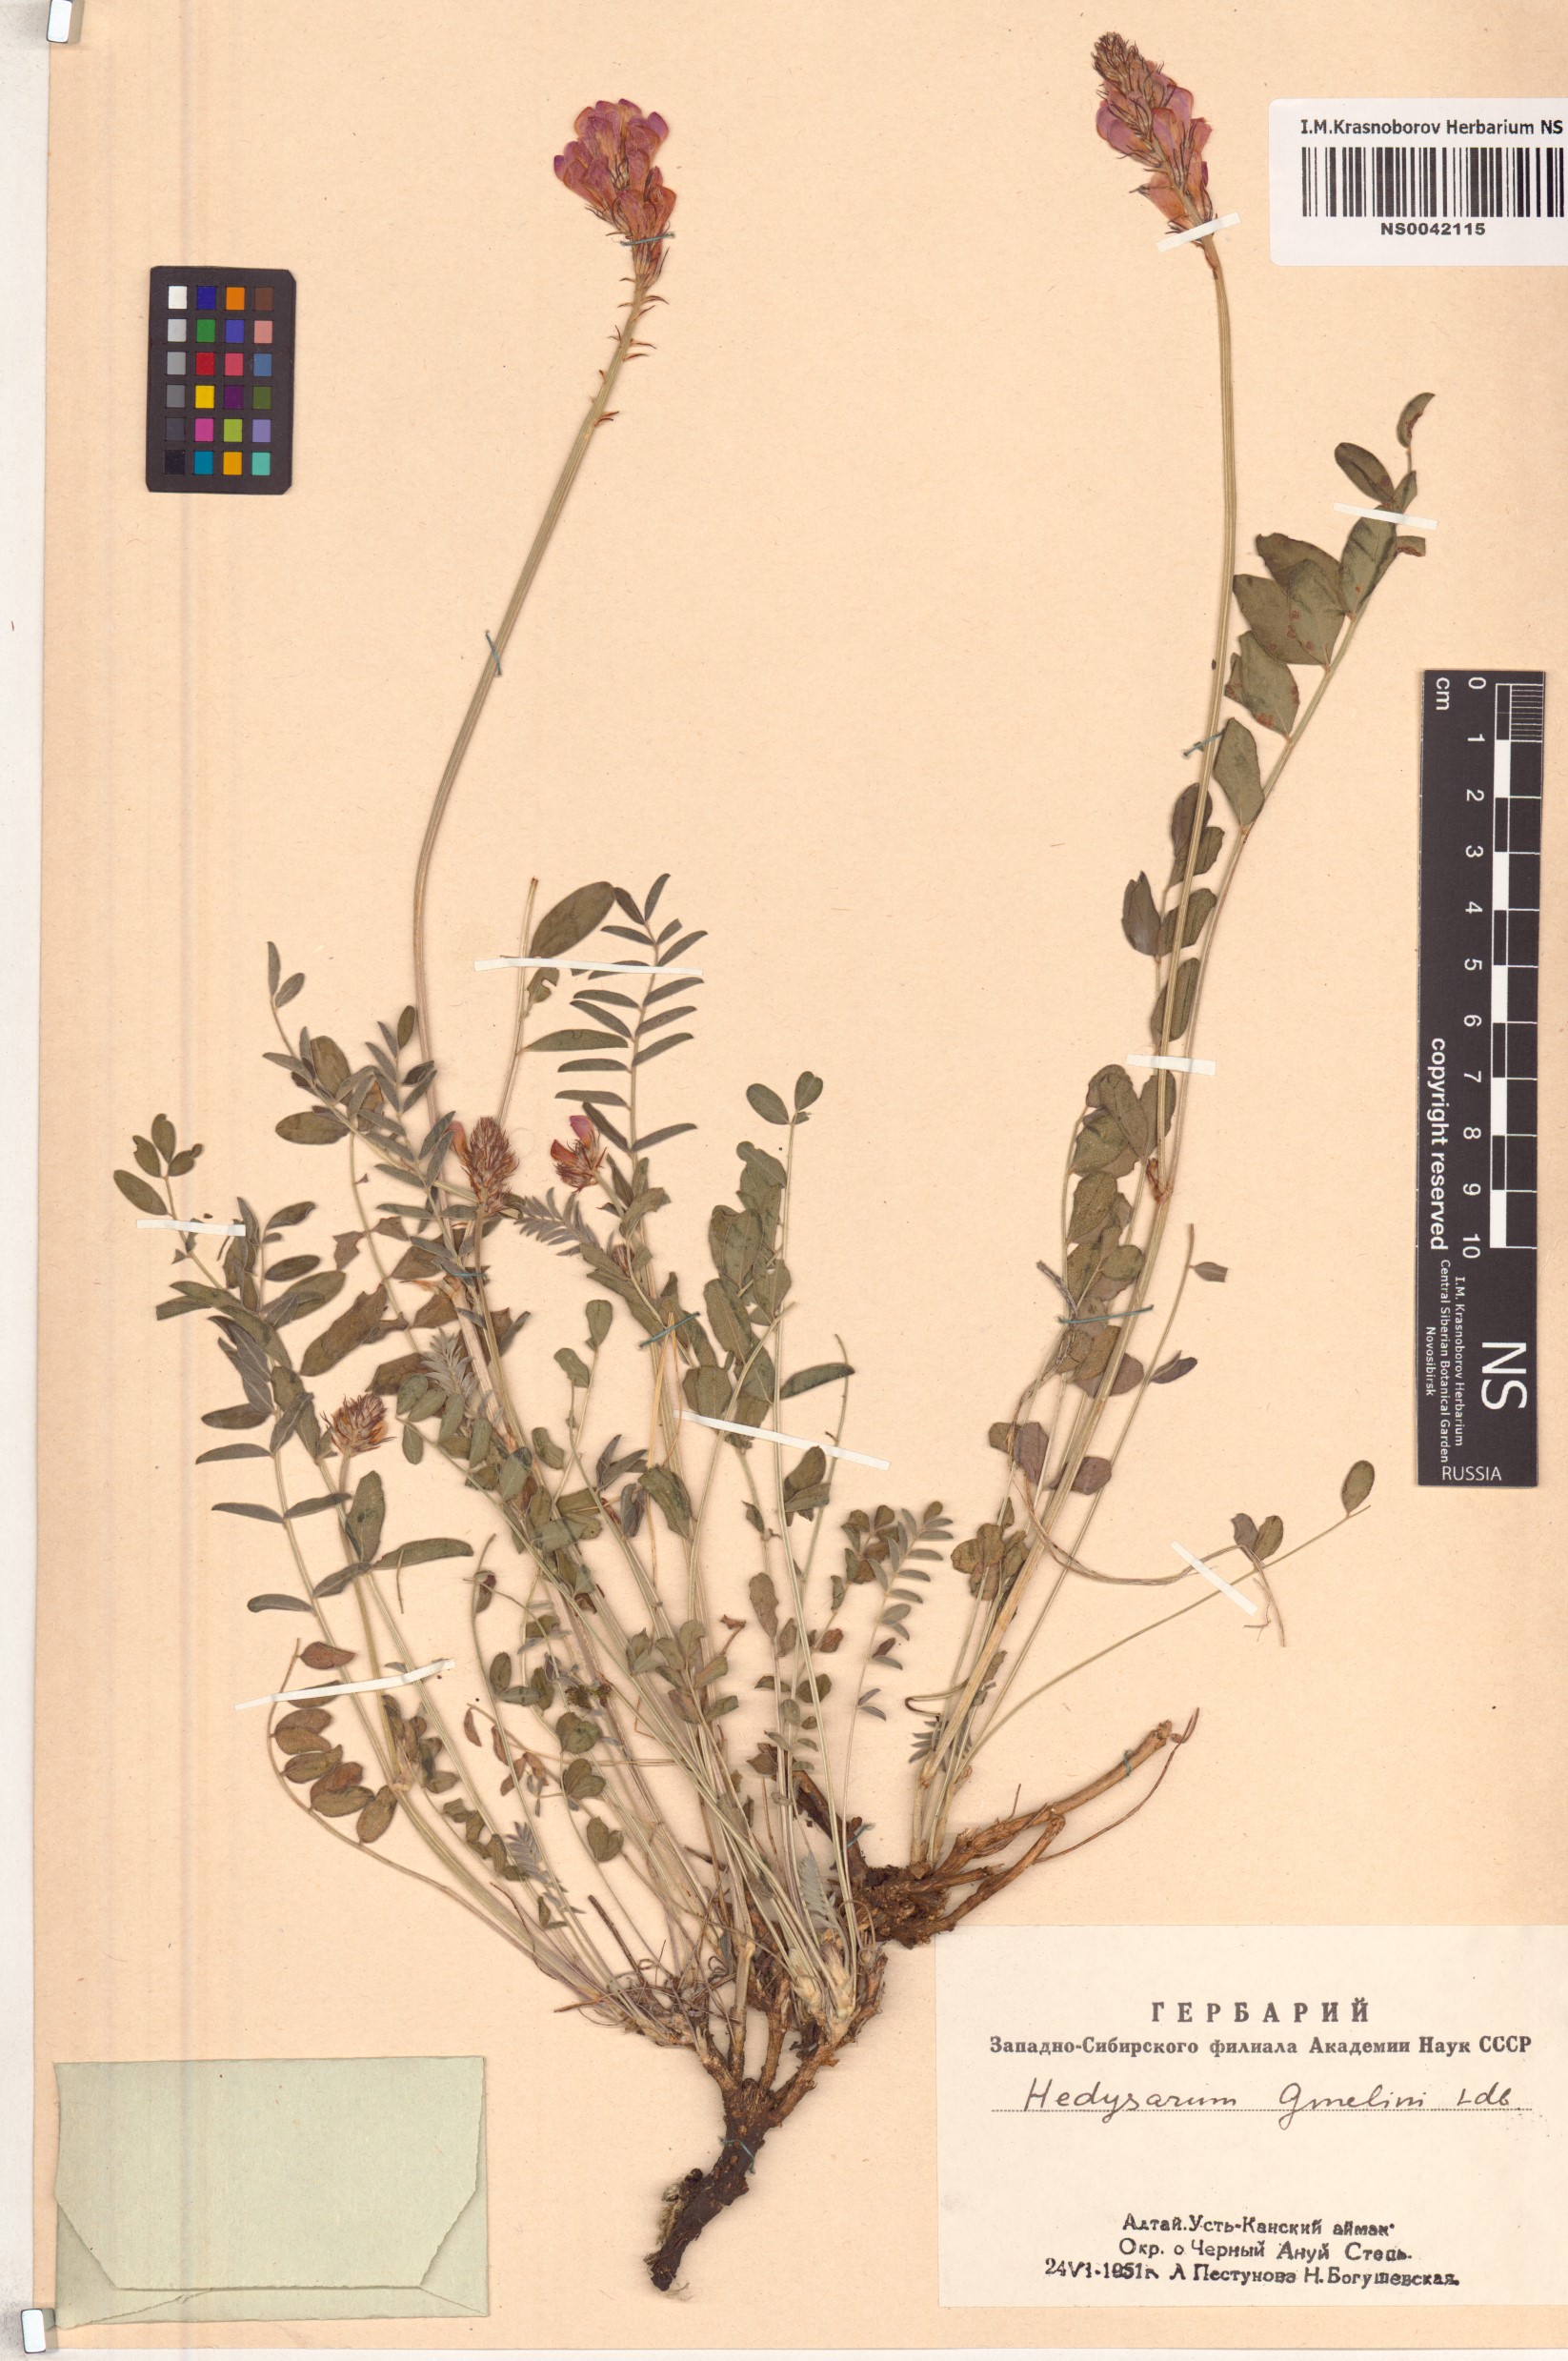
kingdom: Plantae
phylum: Tracheophyta
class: Magnoliopsida
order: Fabales
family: Fabaceae
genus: Hedysarum
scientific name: Hedysarum gmelinii
